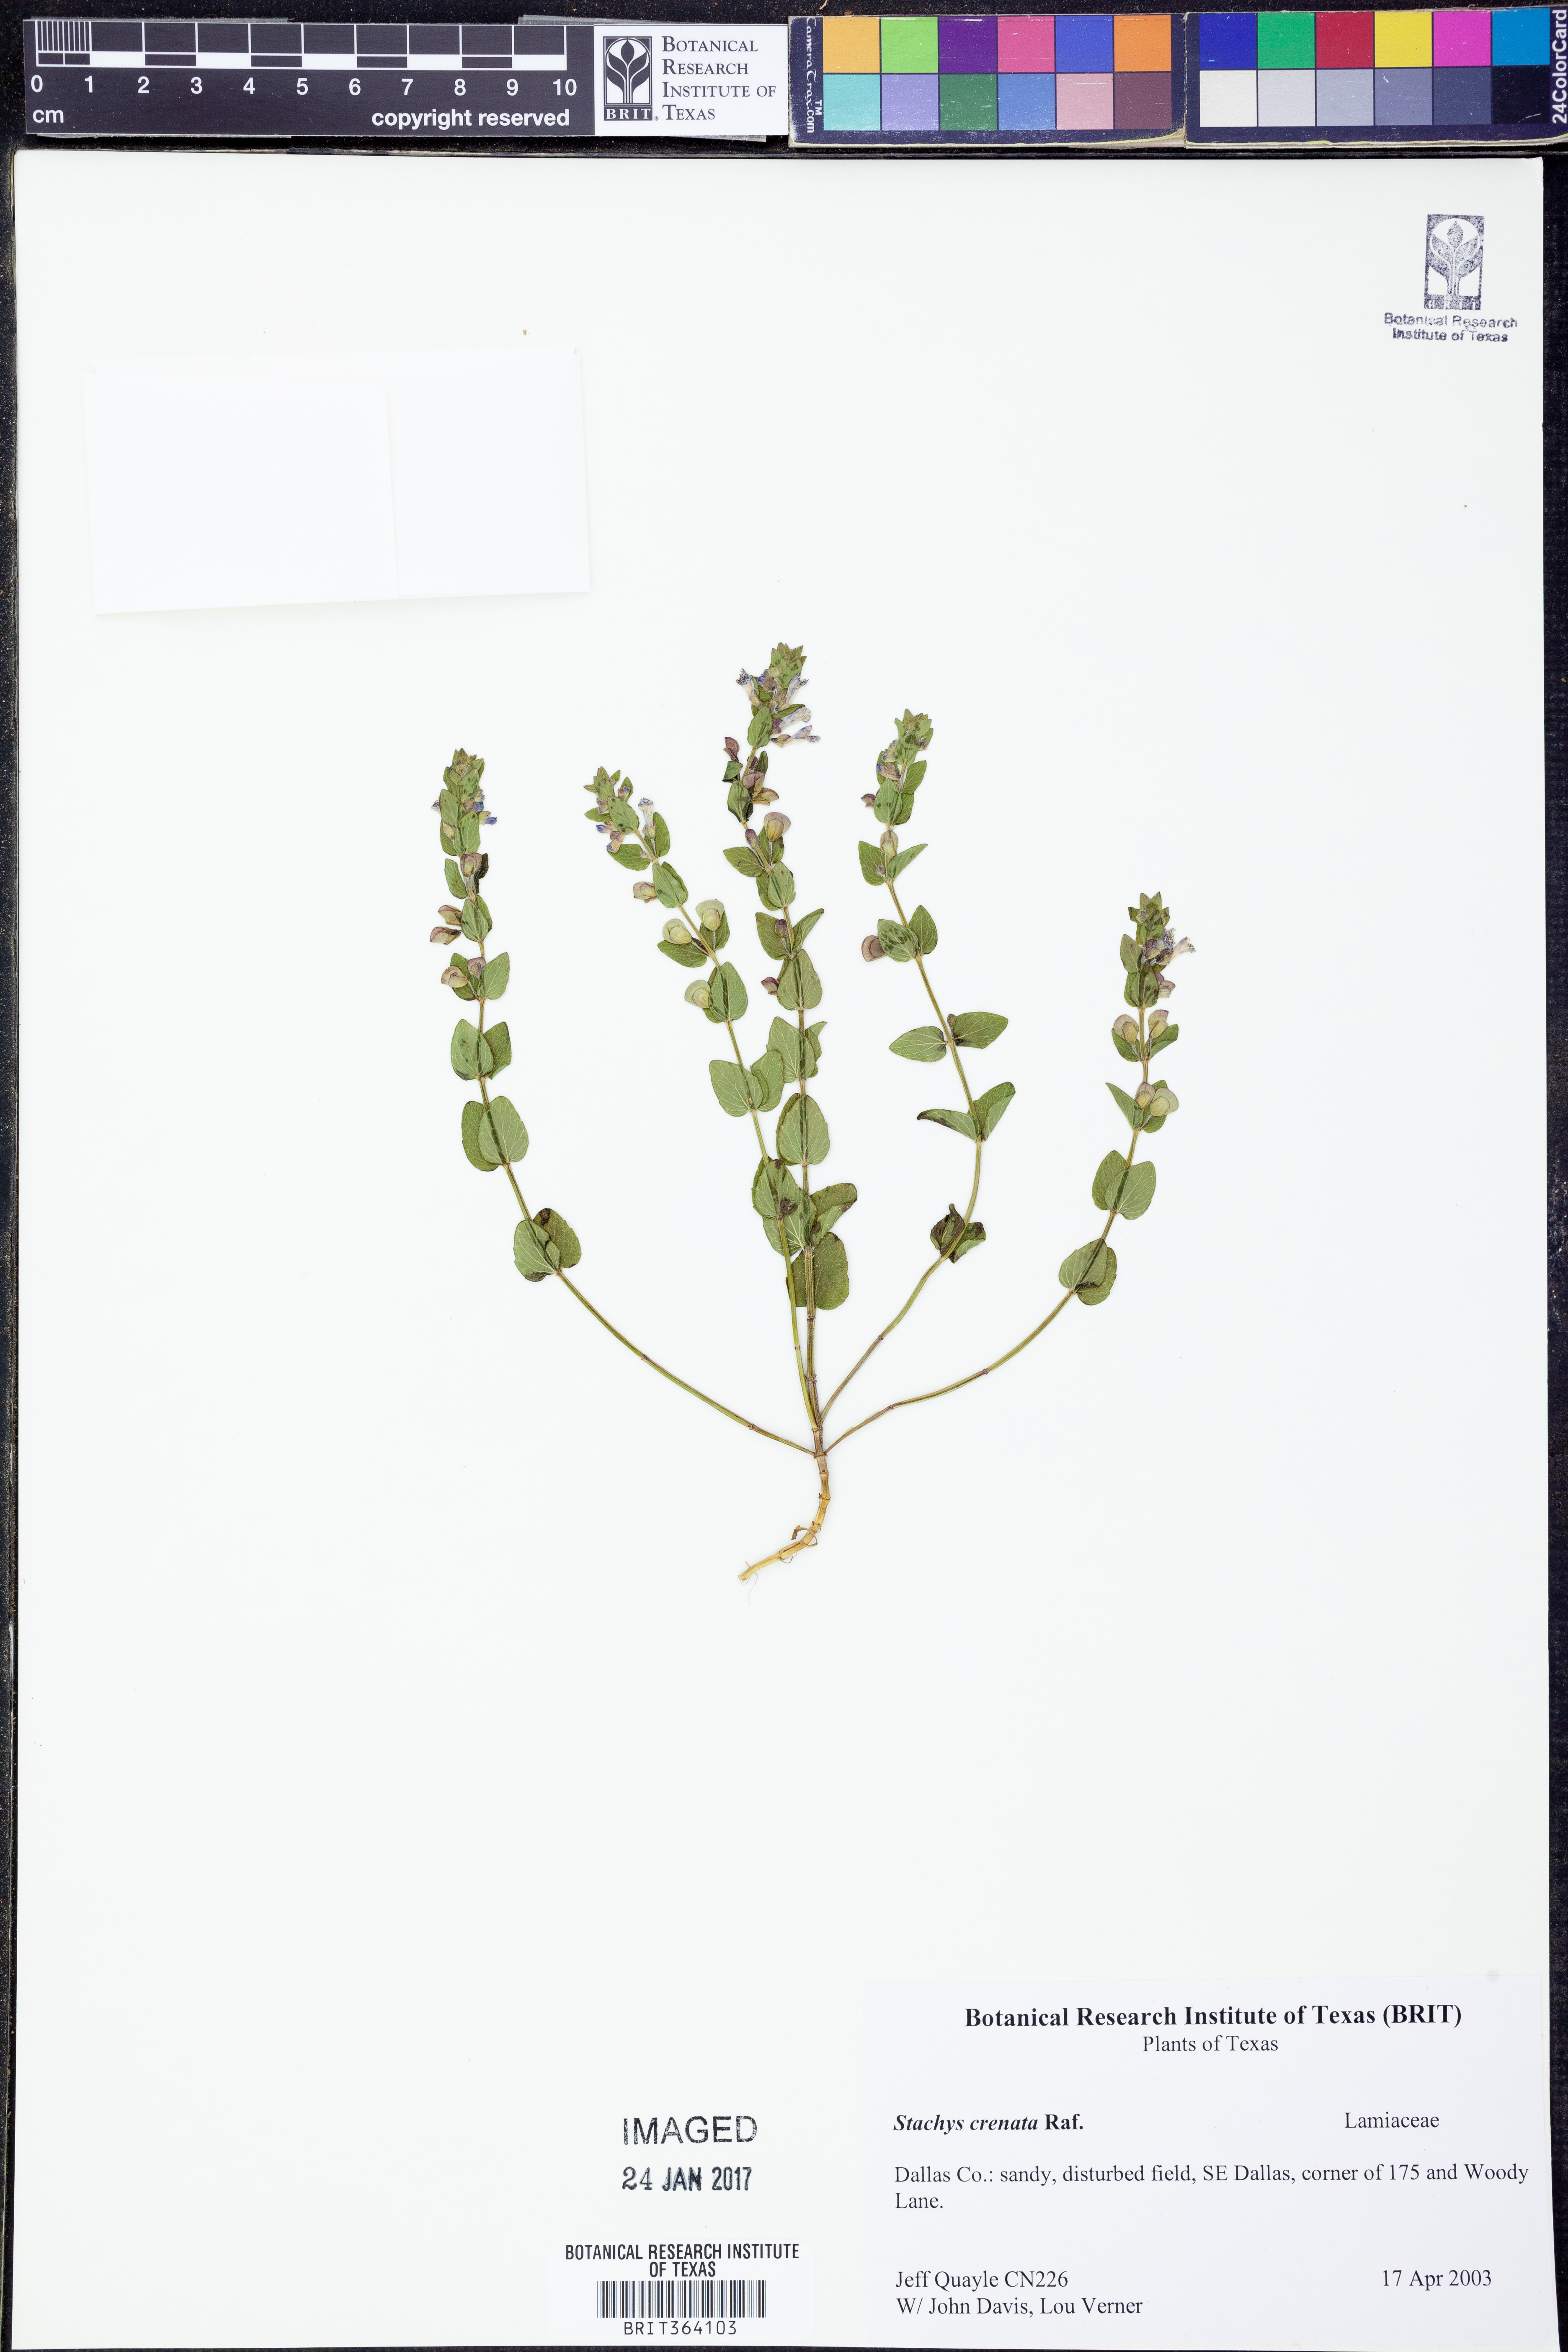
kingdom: Plantae
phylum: Tracheophyta
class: Magnoliopsida
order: Lamiales
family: Lamiaceae
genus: Stachys
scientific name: Stachys agraria
